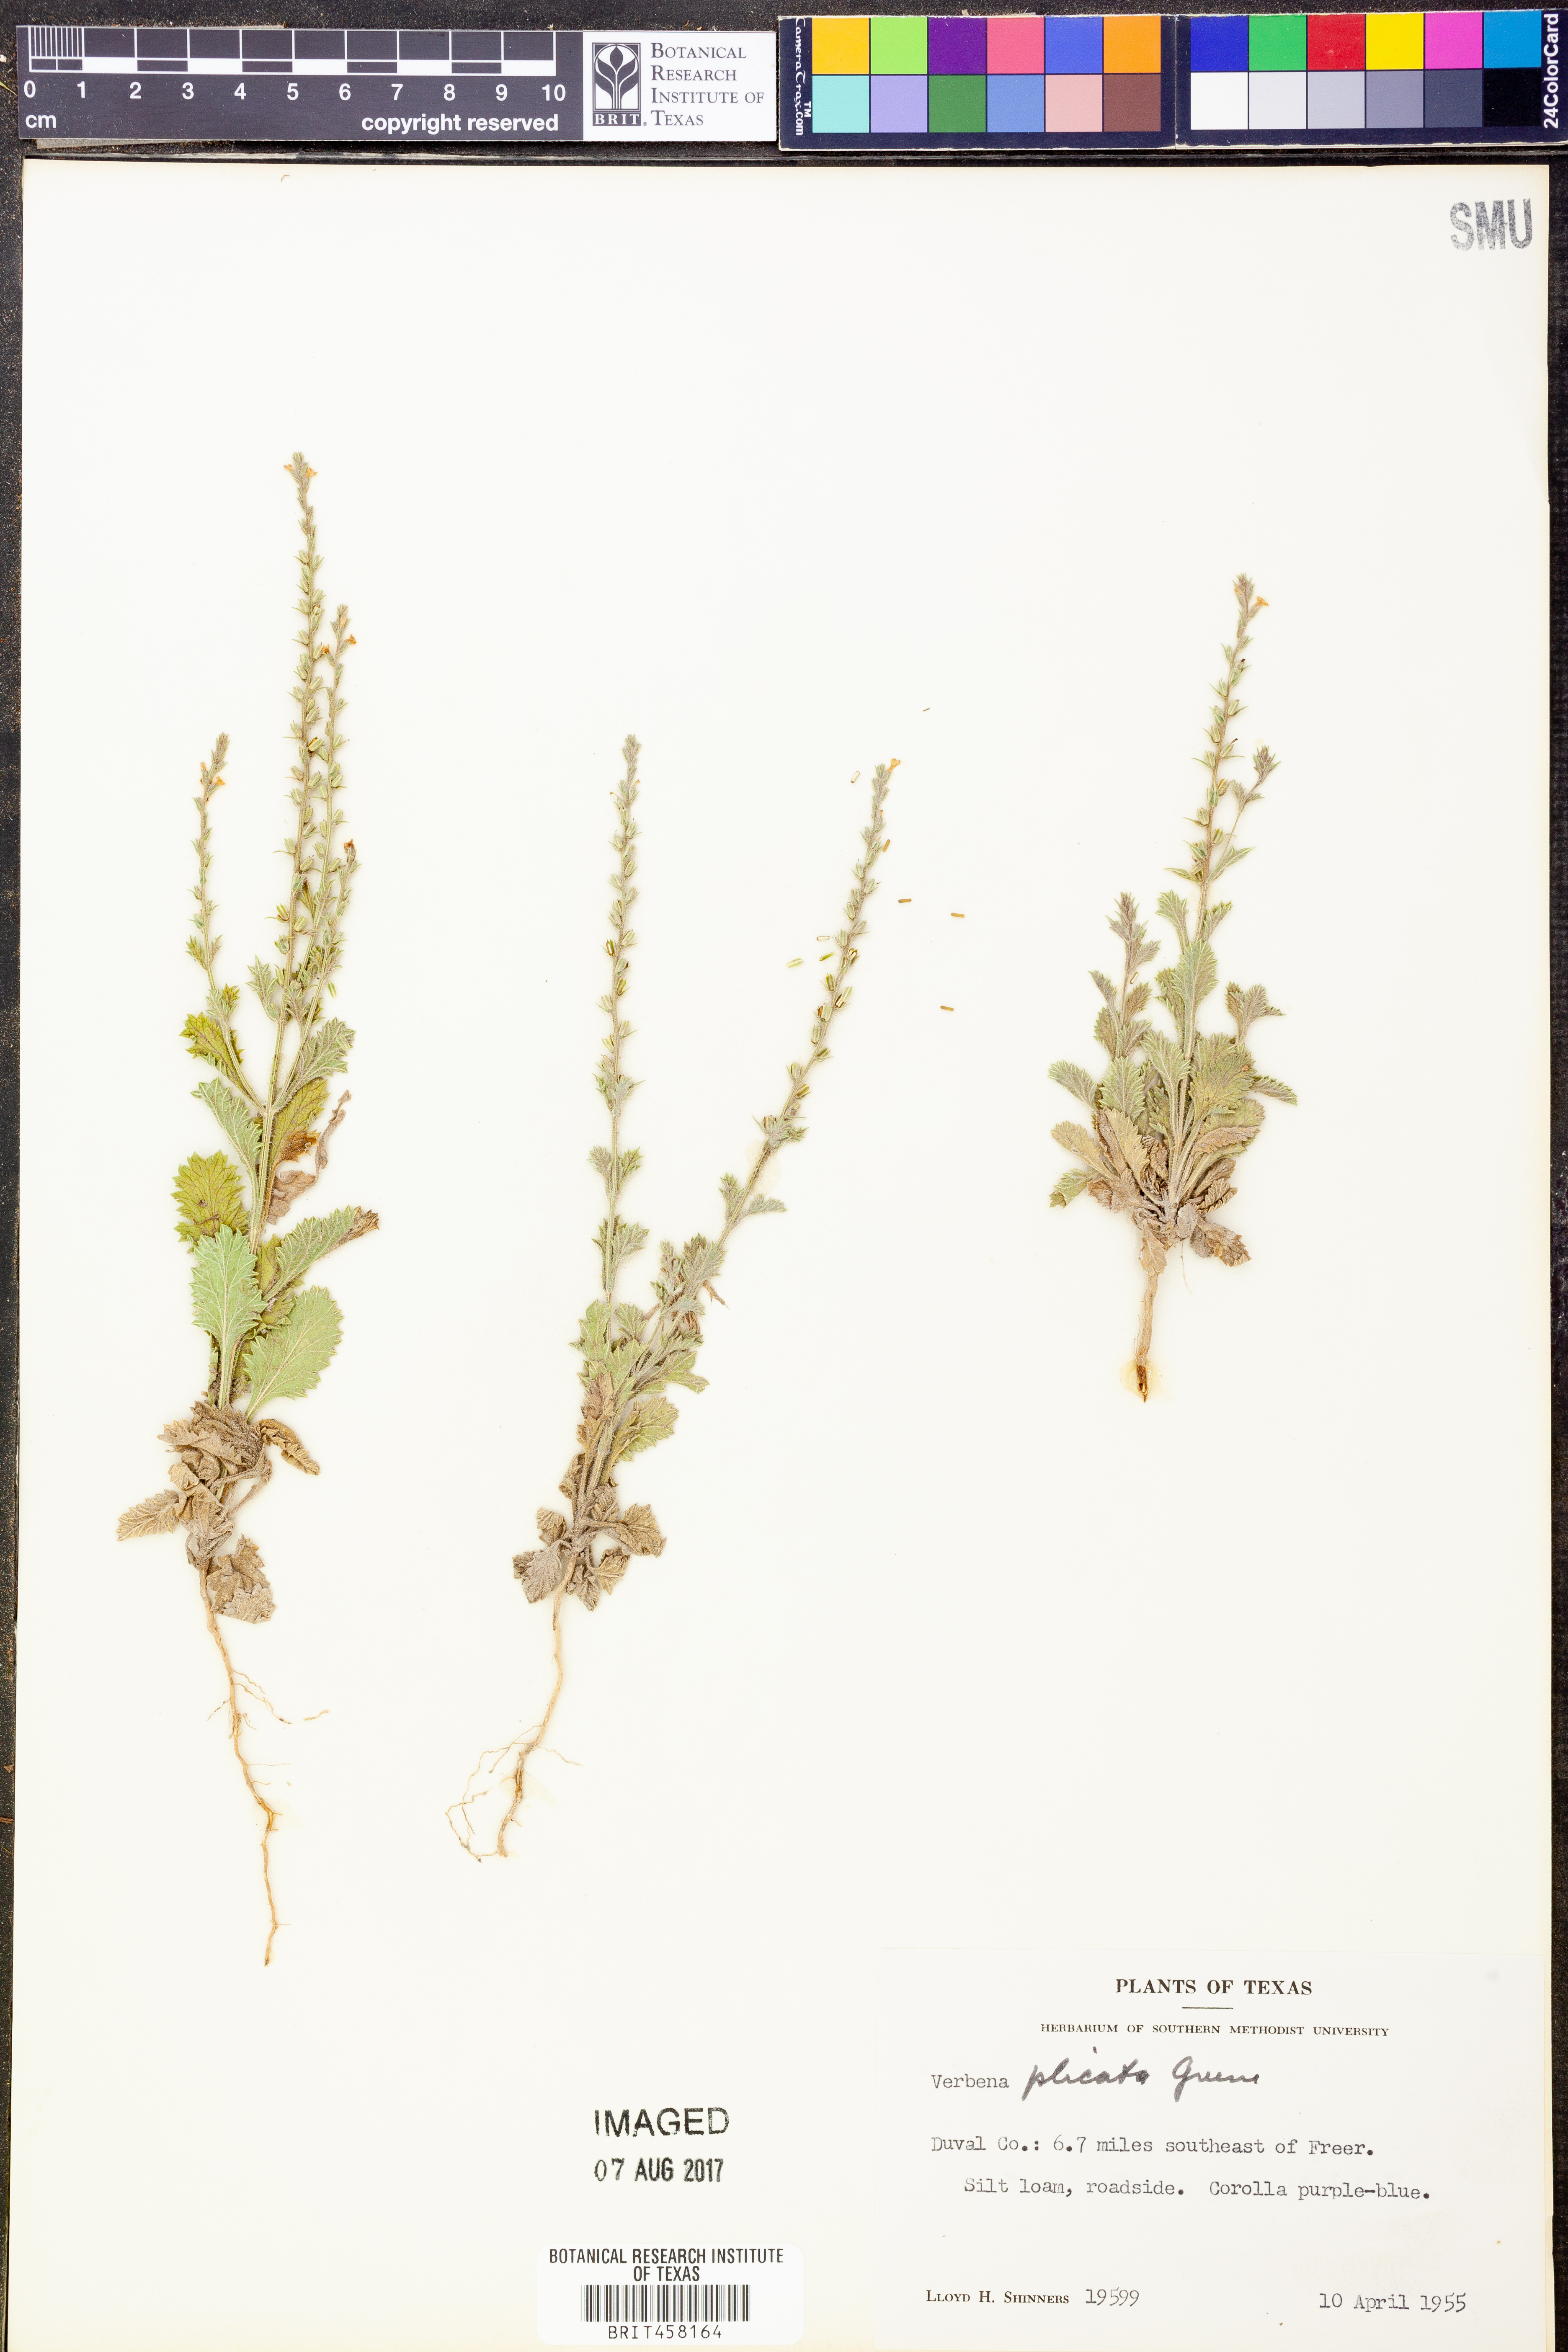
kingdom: Plantae
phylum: Tracheophyta
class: Magnoliopsida
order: Lamiales
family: Verbenaceae
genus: Verbena
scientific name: Verbena plicata
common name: Fan-leaf vervain
